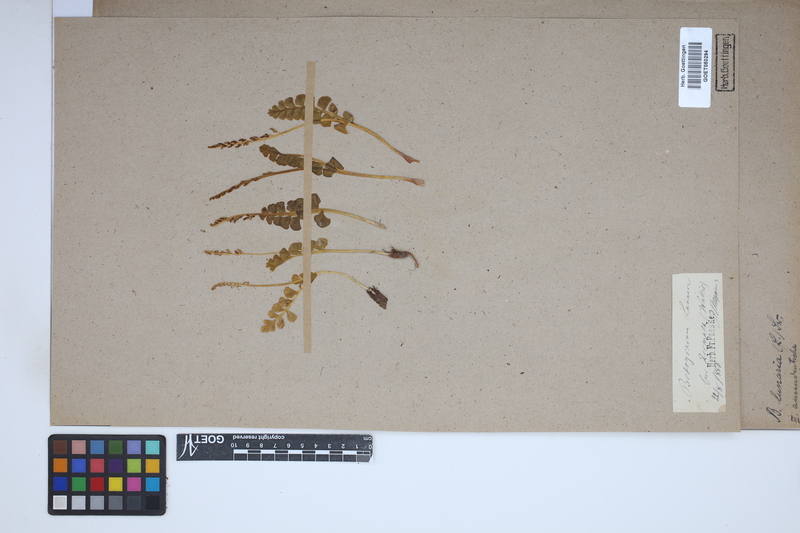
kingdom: Plantae
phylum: Tracheophyta
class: Polypodiopsida
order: Ophioglossales
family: Ophioglossaceae
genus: Botrychium
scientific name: Botrychium lunaria
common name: Moonwort
